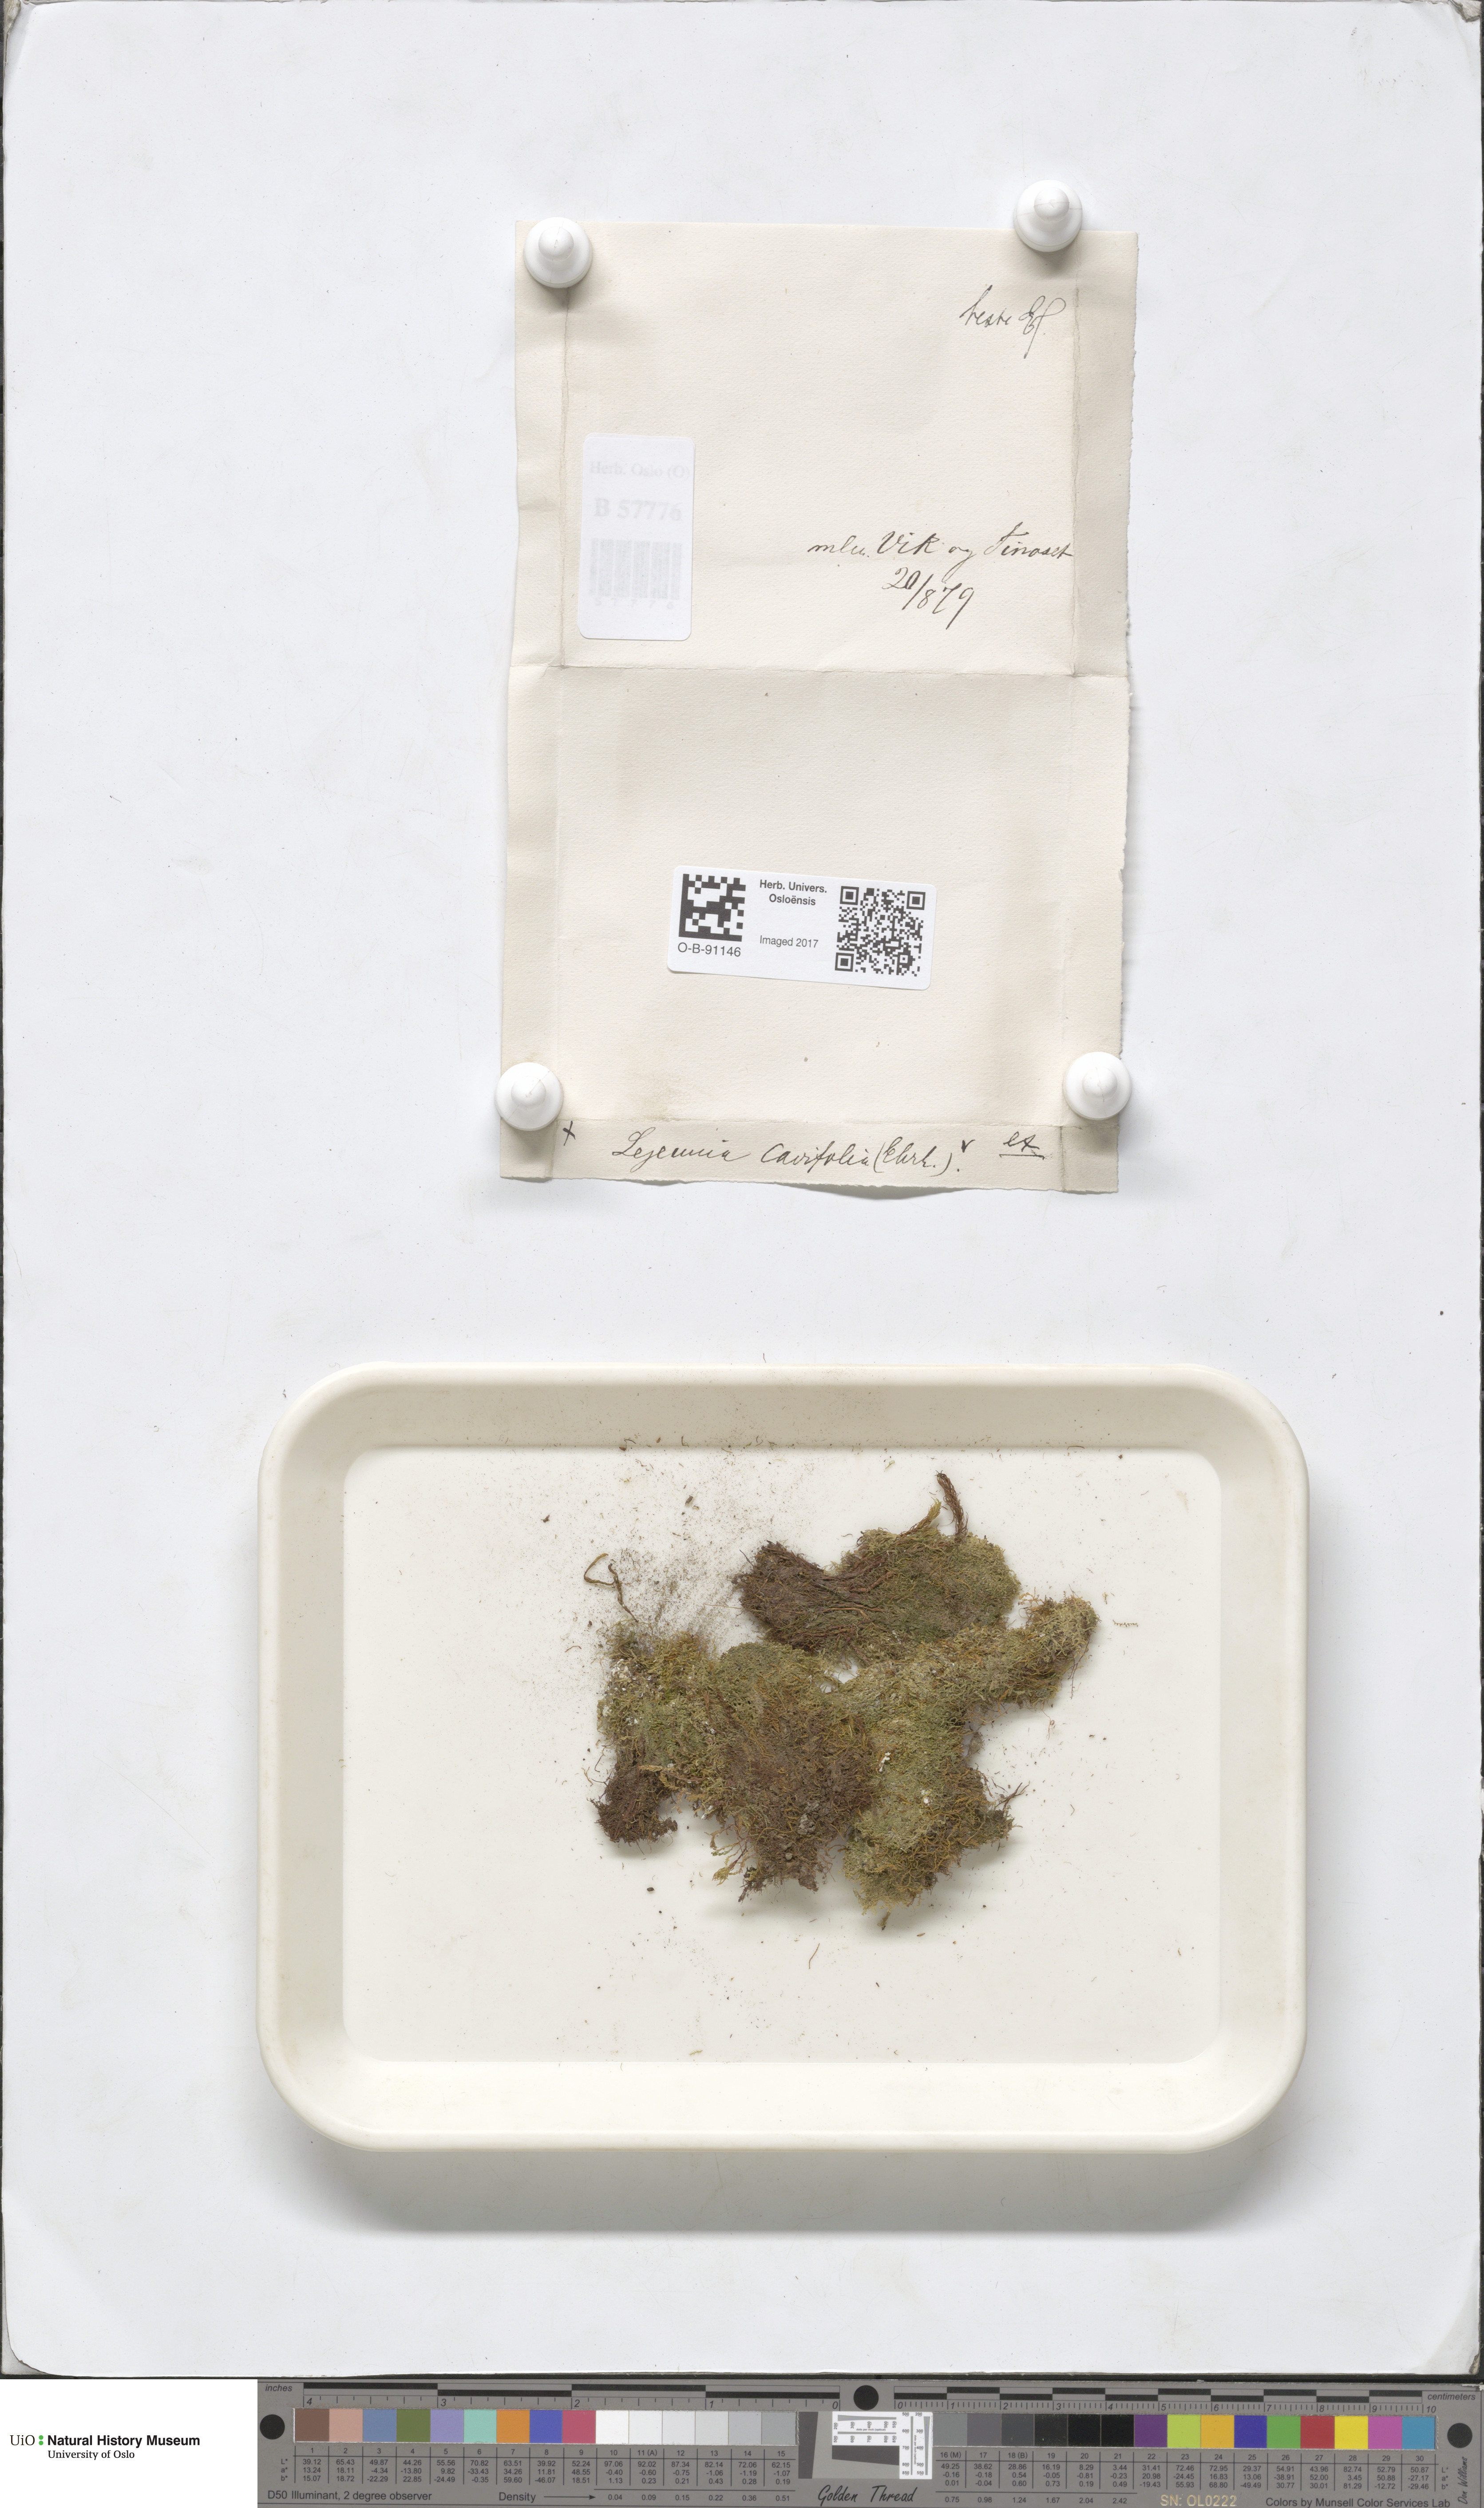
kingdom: Plantae
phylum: Marchantiophyta
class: Jungermanniopsida
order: Porellales
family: Lejeuneaceae
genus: Lejeunea
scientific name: Lejeunea cavifolia
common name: Least pouncewort
